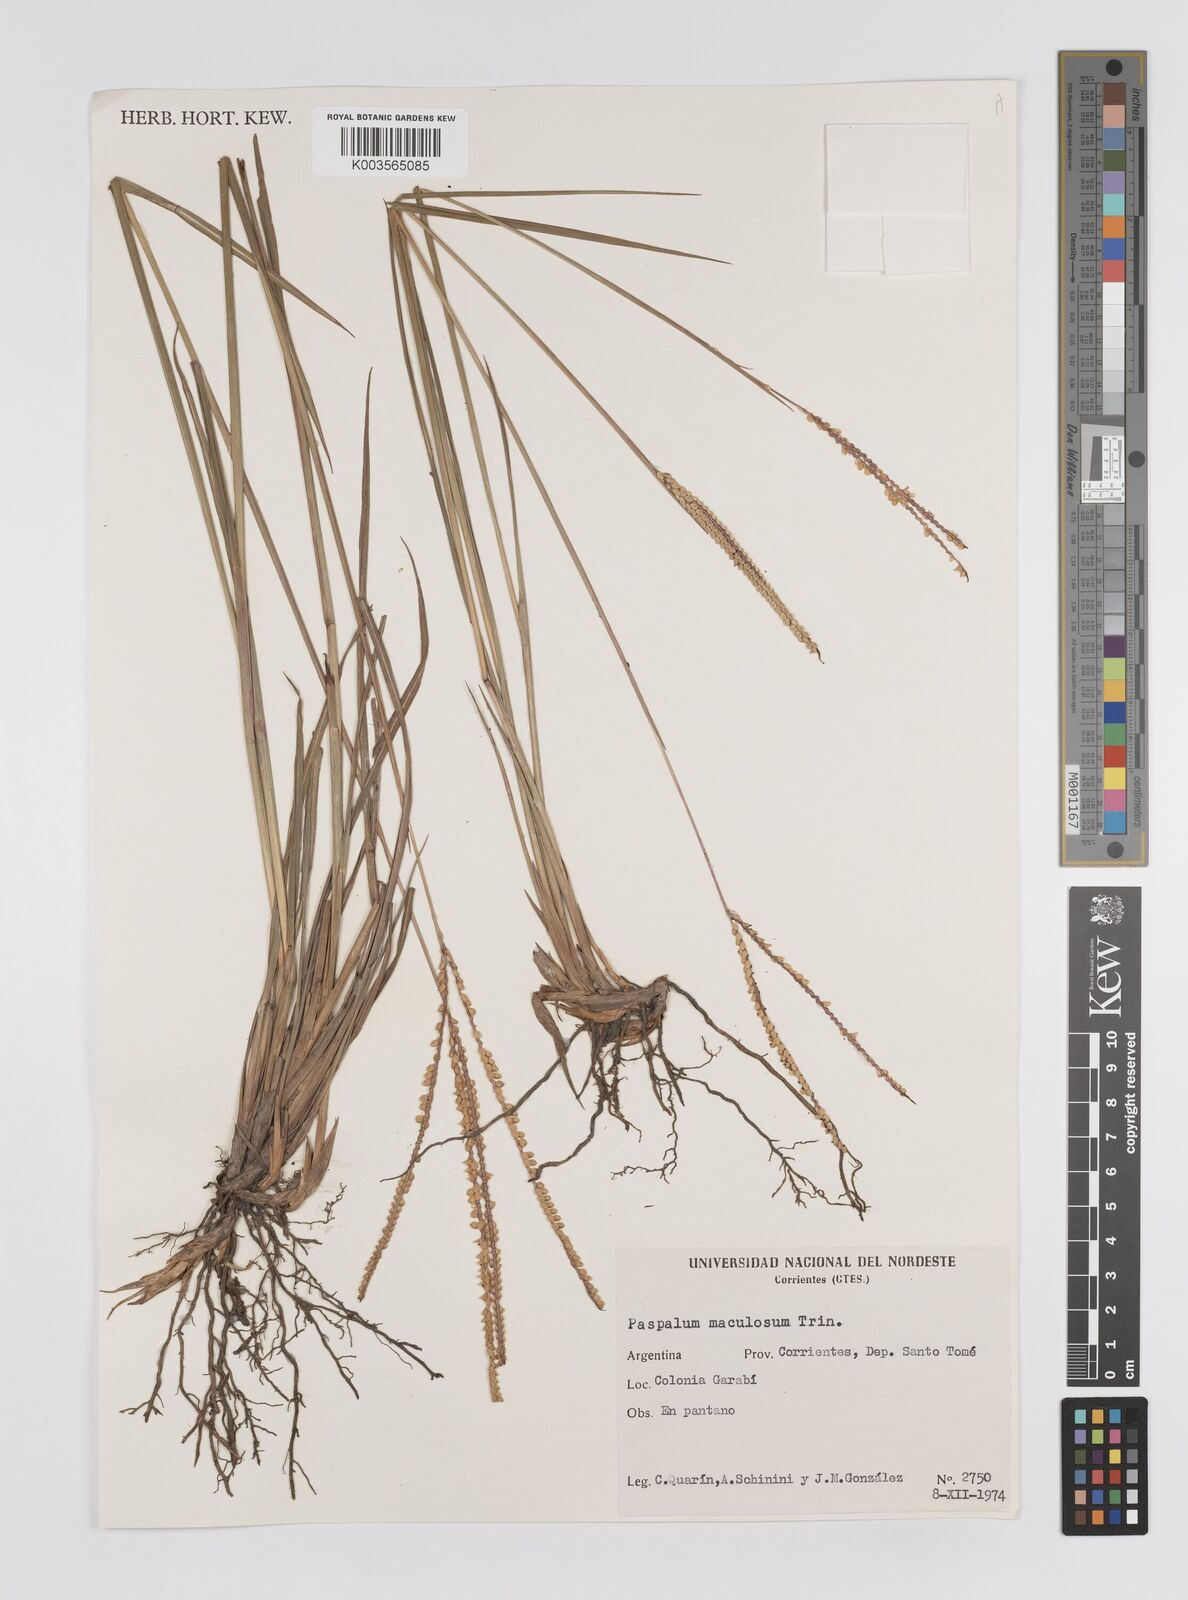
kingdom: Plantae
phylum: Tracheophyta
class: Liliopsida
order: Poales
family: Poaceae
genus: Paspalum
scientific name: Paspalum maculosum
